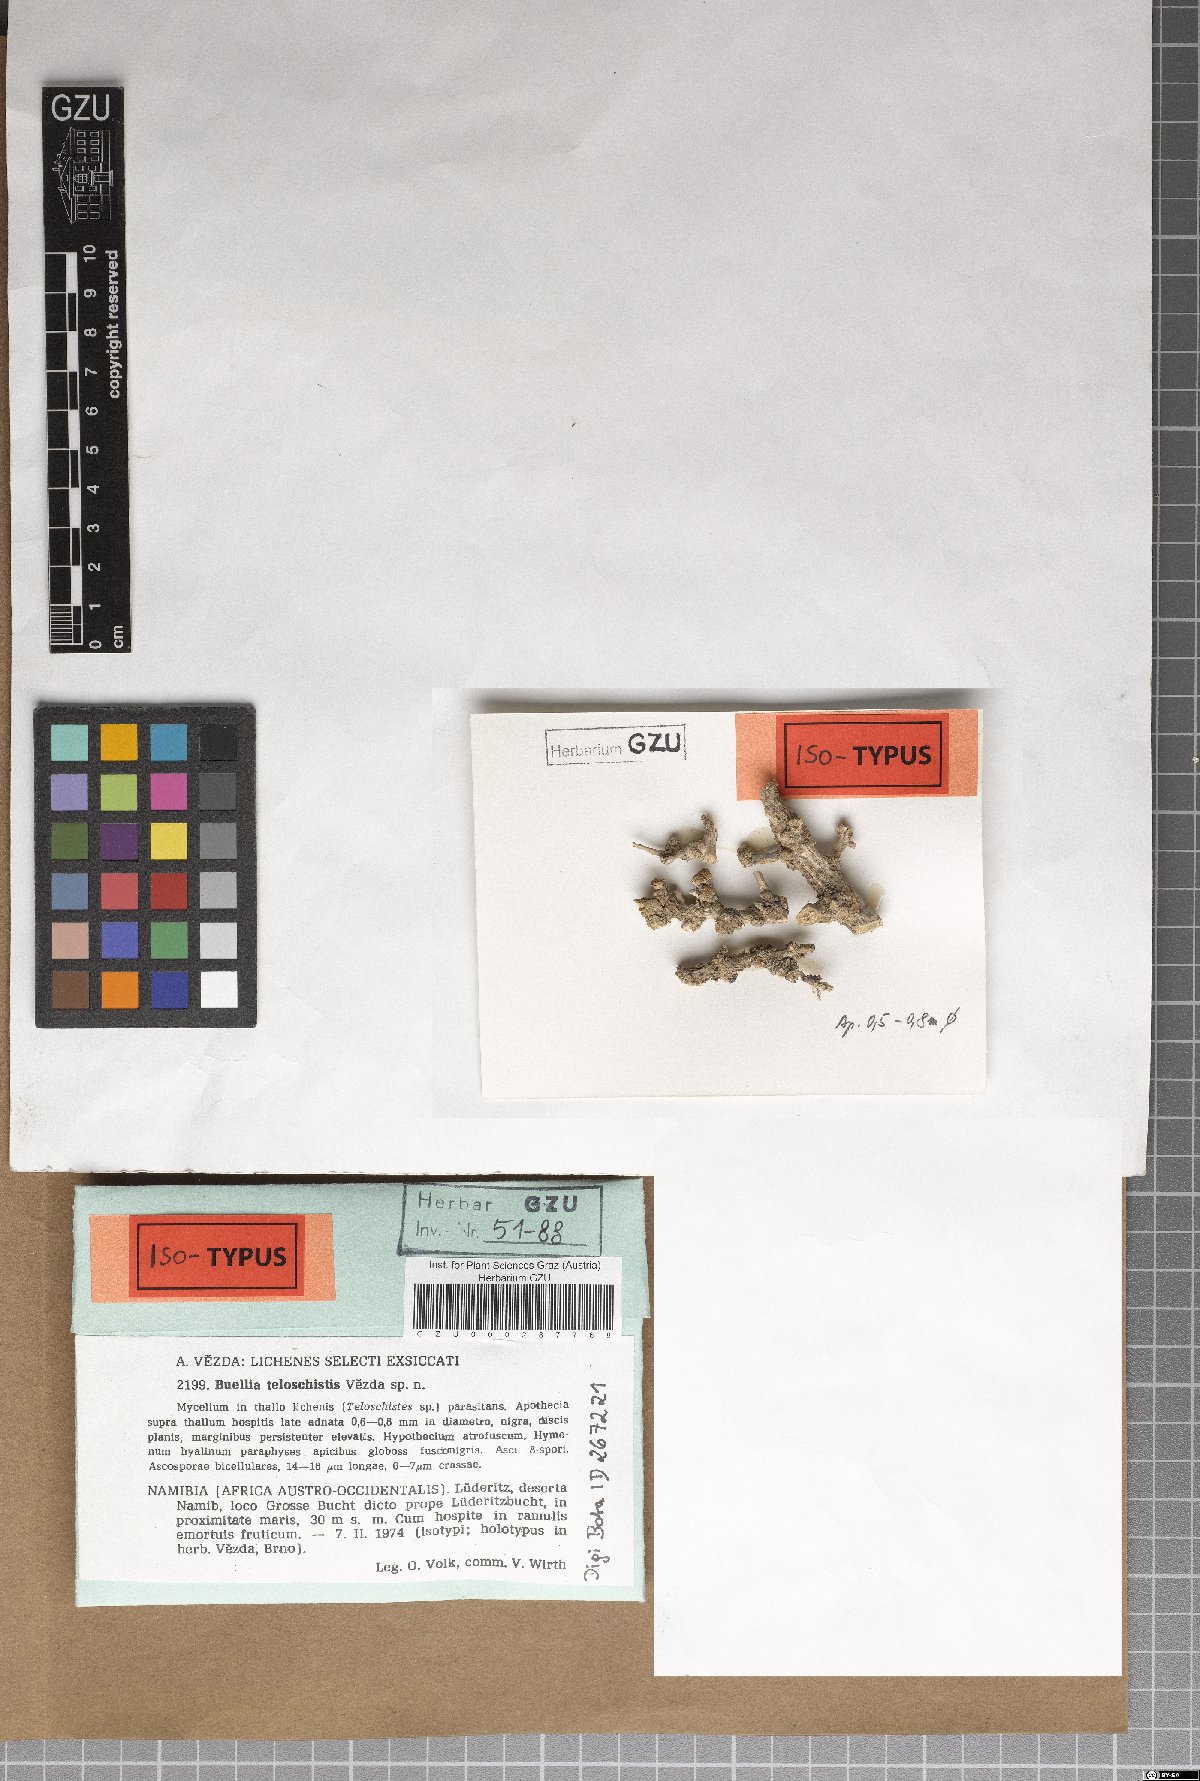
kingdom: Fungi
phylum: Ascomycota
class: Lecanoromycetes
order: Caliciales
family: Physciaceae
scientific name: Physciaceae
